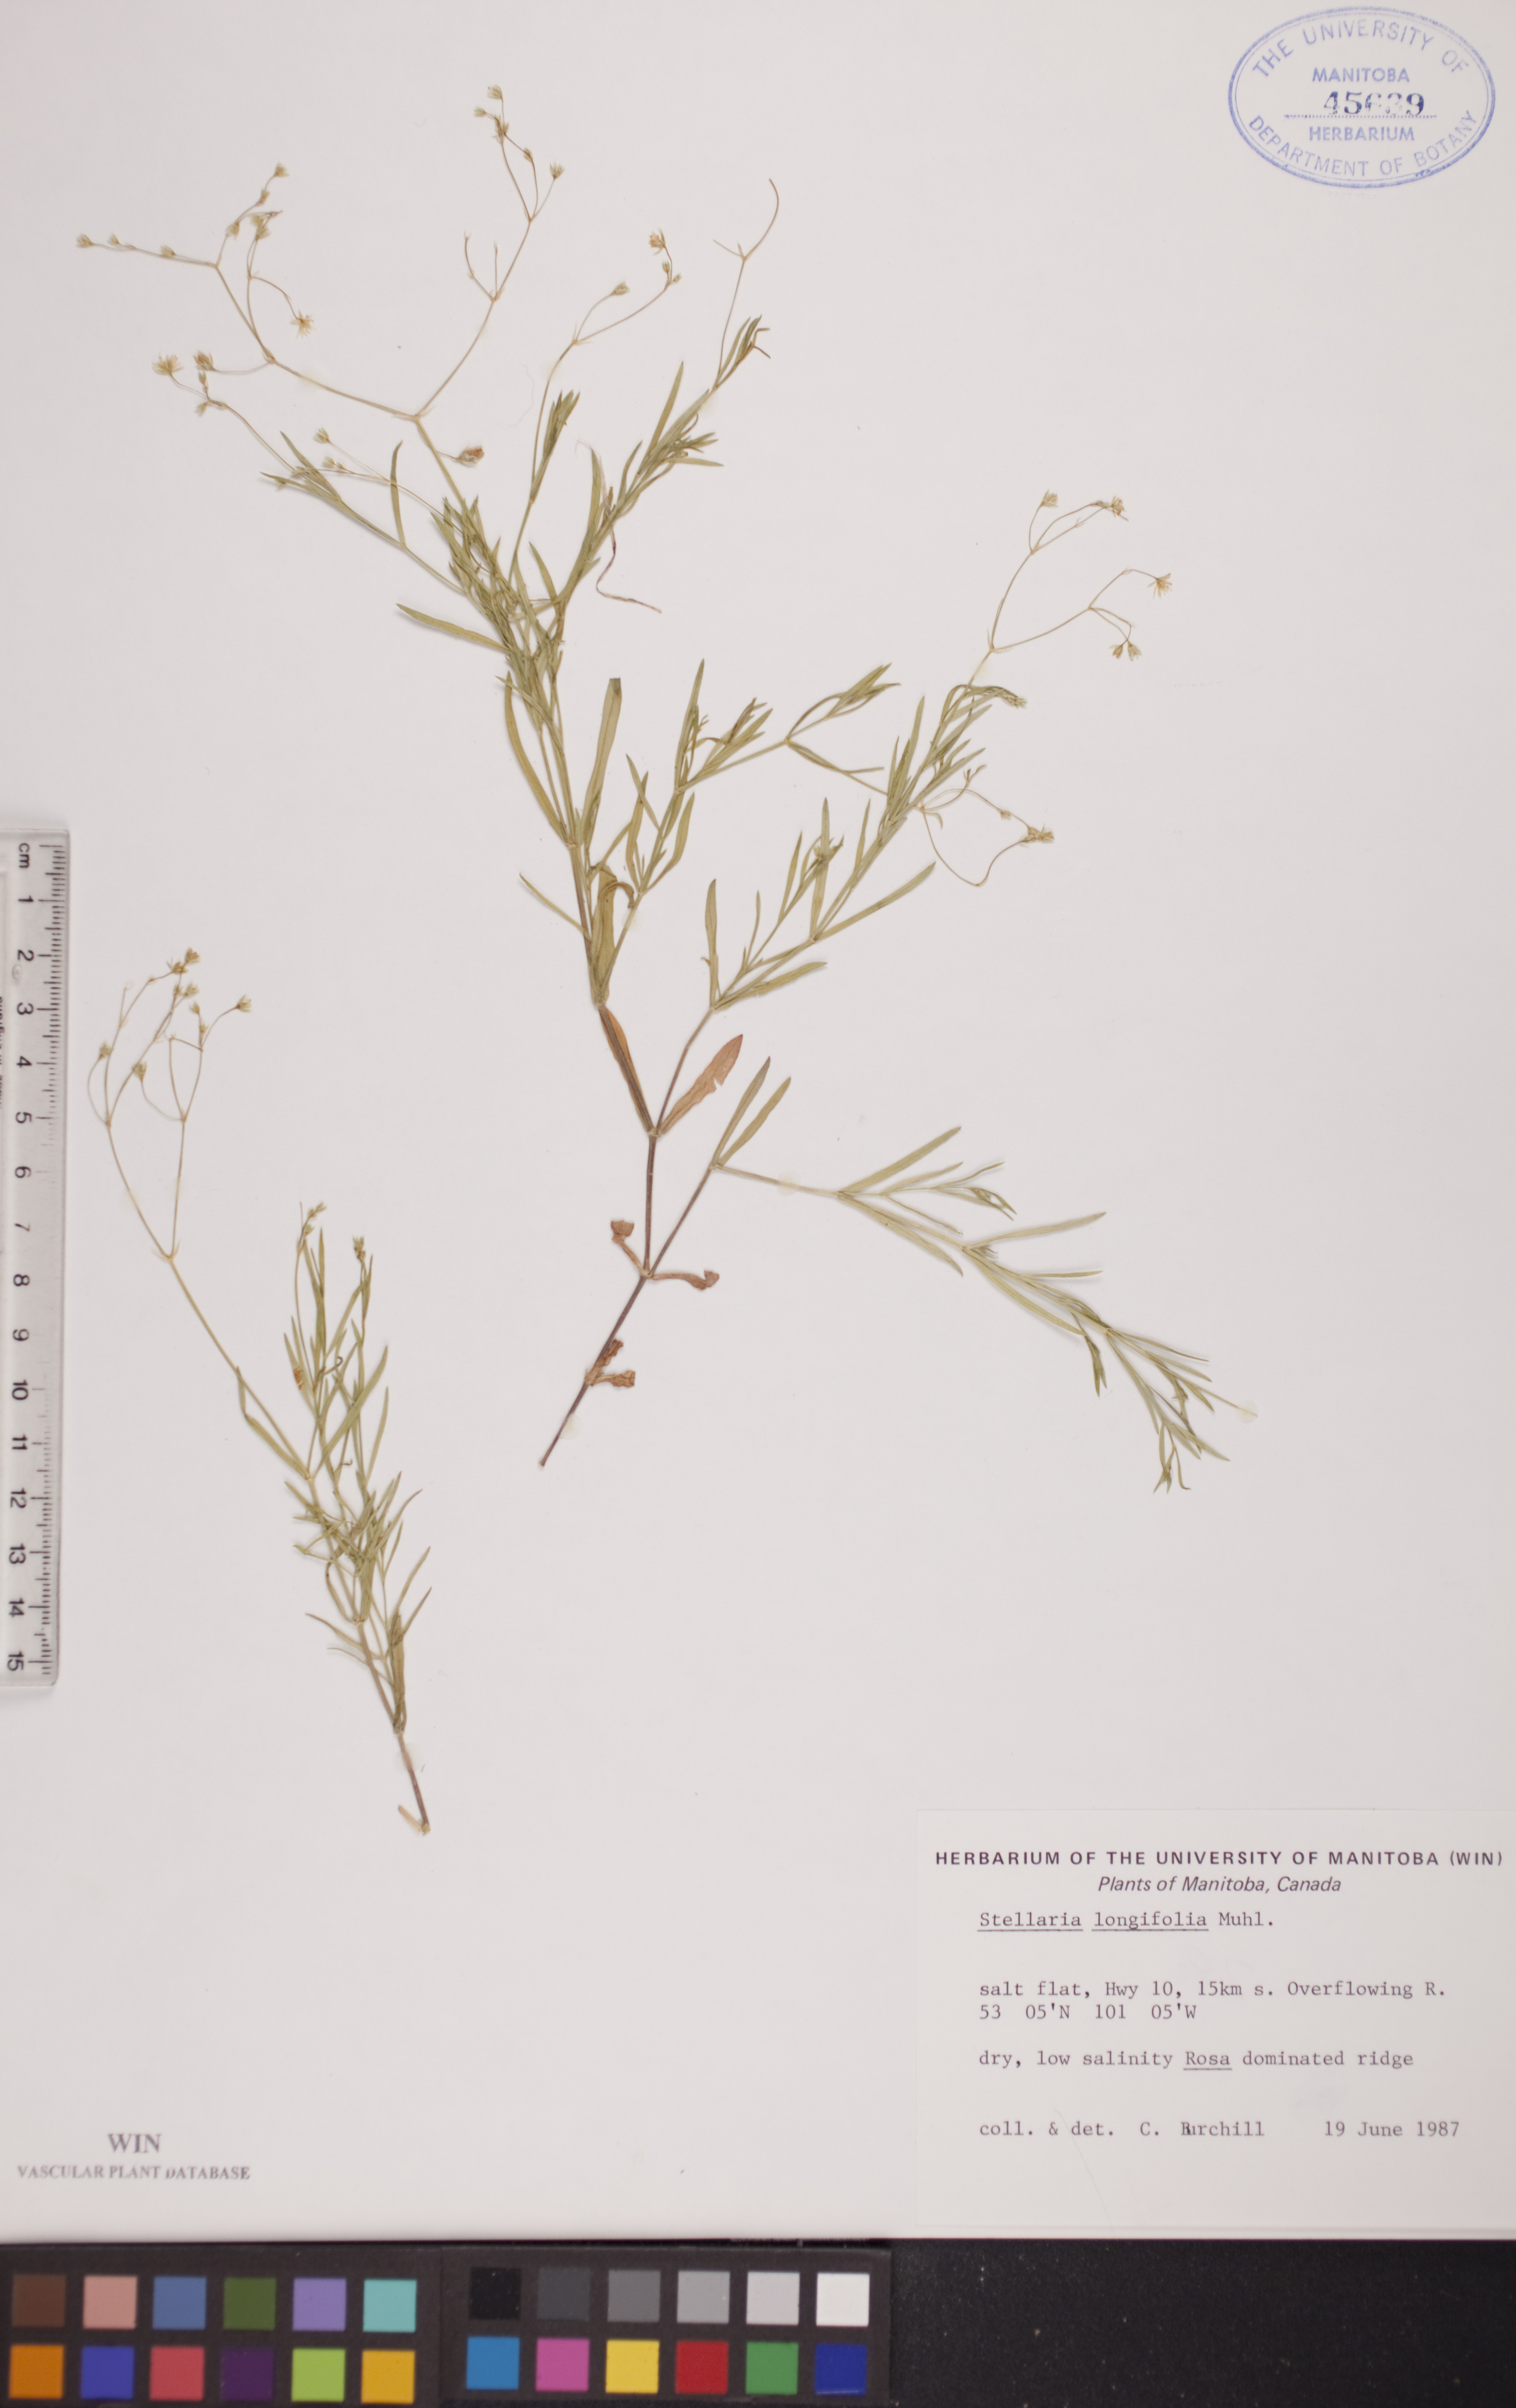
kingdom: Plantae
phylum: Tracheophyta
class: Magnoliopsida
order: Caryophyllales
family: Caryophyllaceae
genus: Stellaria
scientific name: Stellaria longifolia
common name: Long-leaved chickweed
